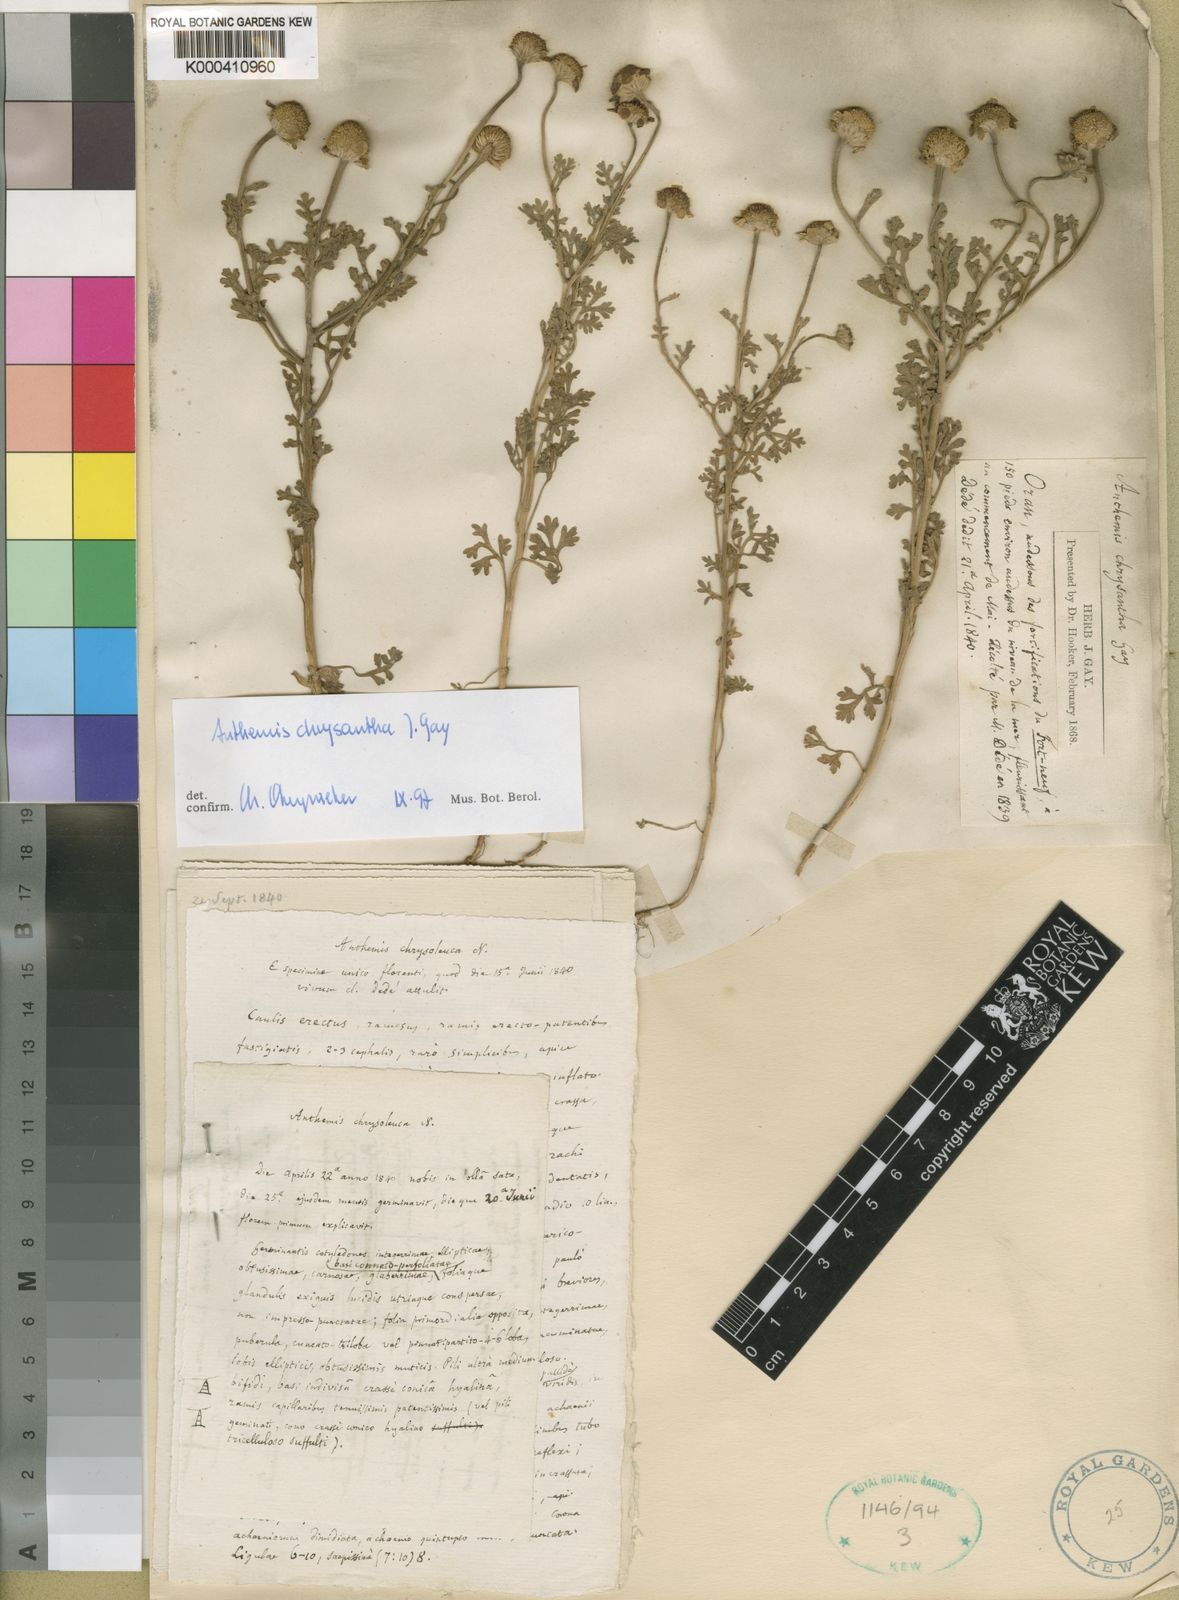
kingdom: Plantae
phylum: Tracheophyta
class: Magnoliopsida
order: Asterales
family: Asteraceae
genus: Anthemis
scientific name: Anthemis chrysantha
